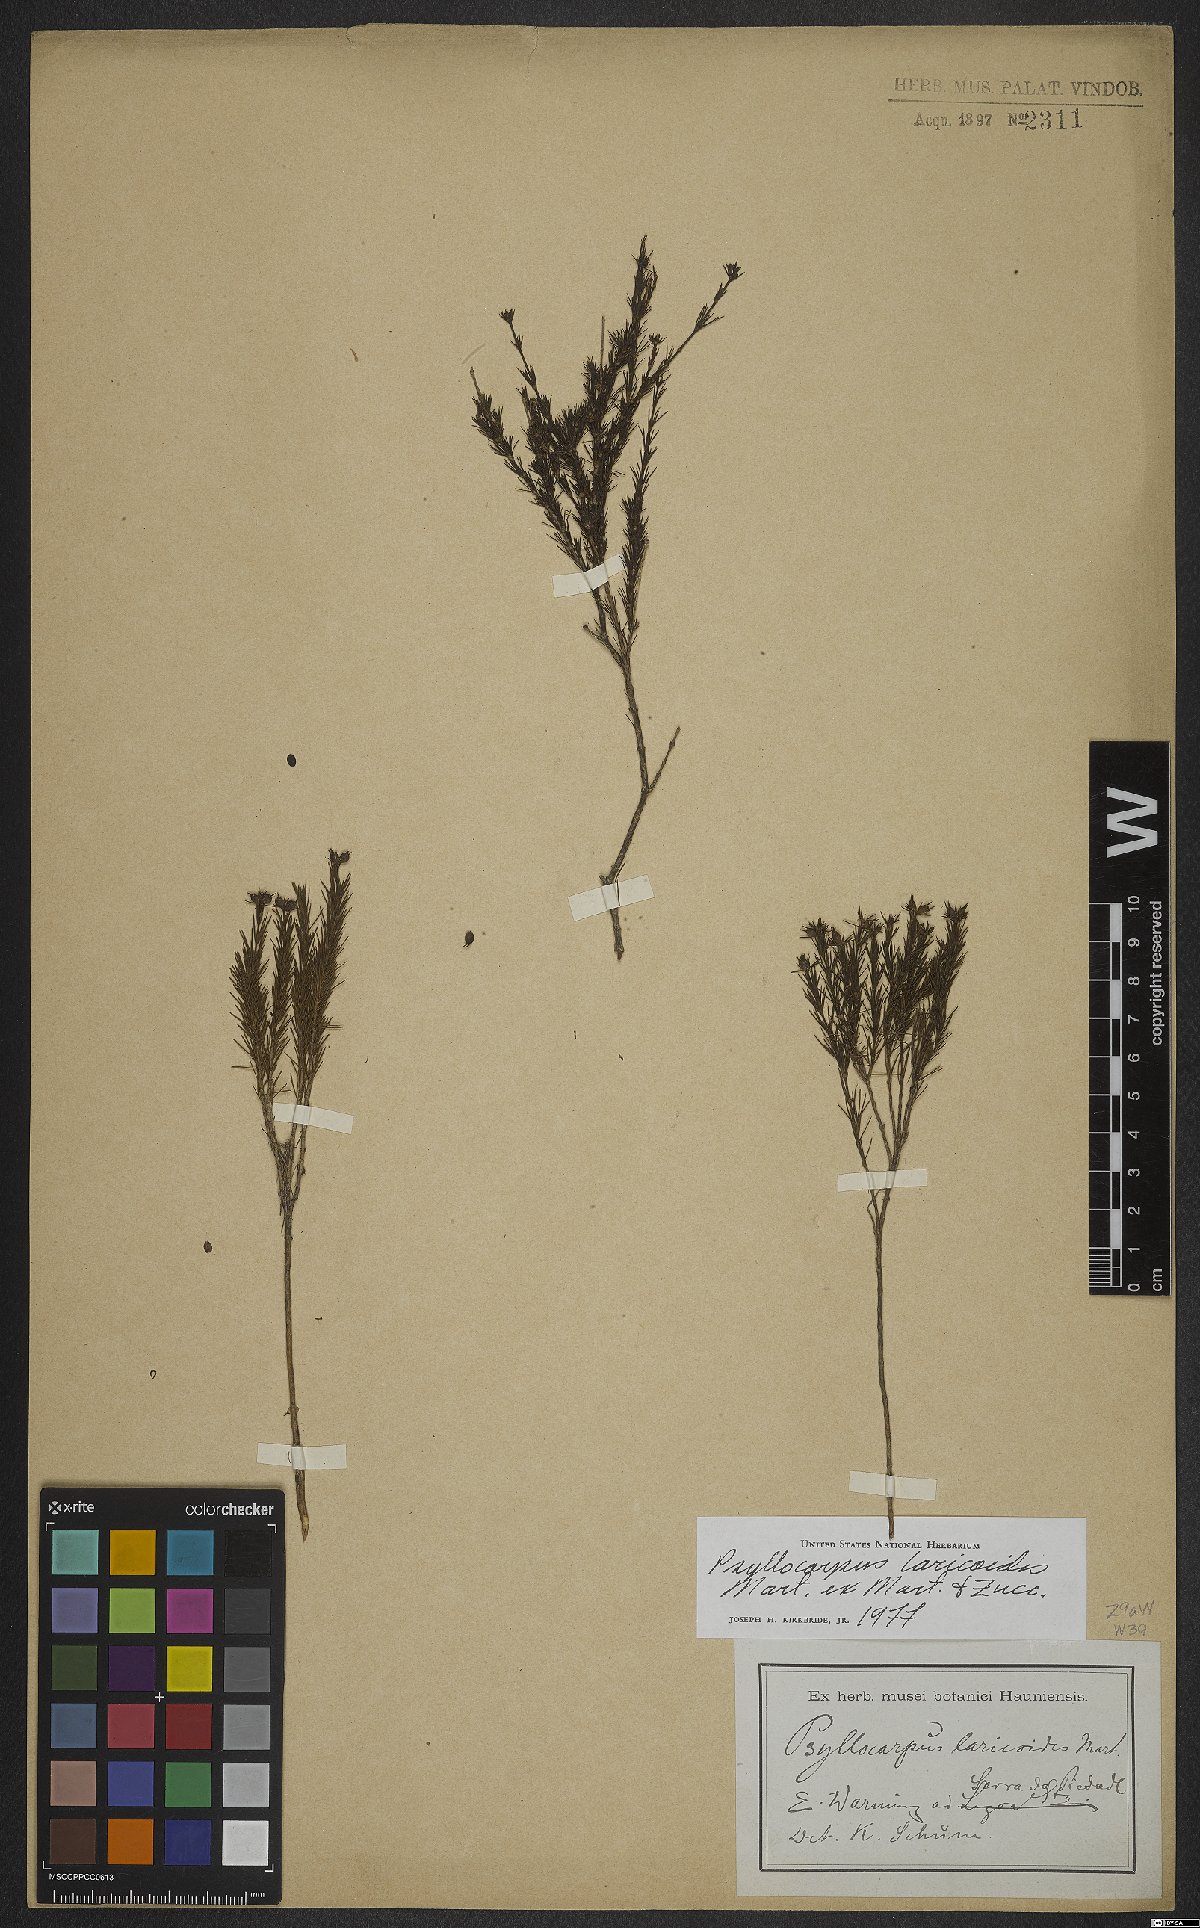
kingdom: Plantae
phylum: Tracheophyta
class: Magnoliopsida
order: Gentianales
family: Rubiaceae
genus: Psyllocarpus
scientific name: Psyllocarpus laricoides
